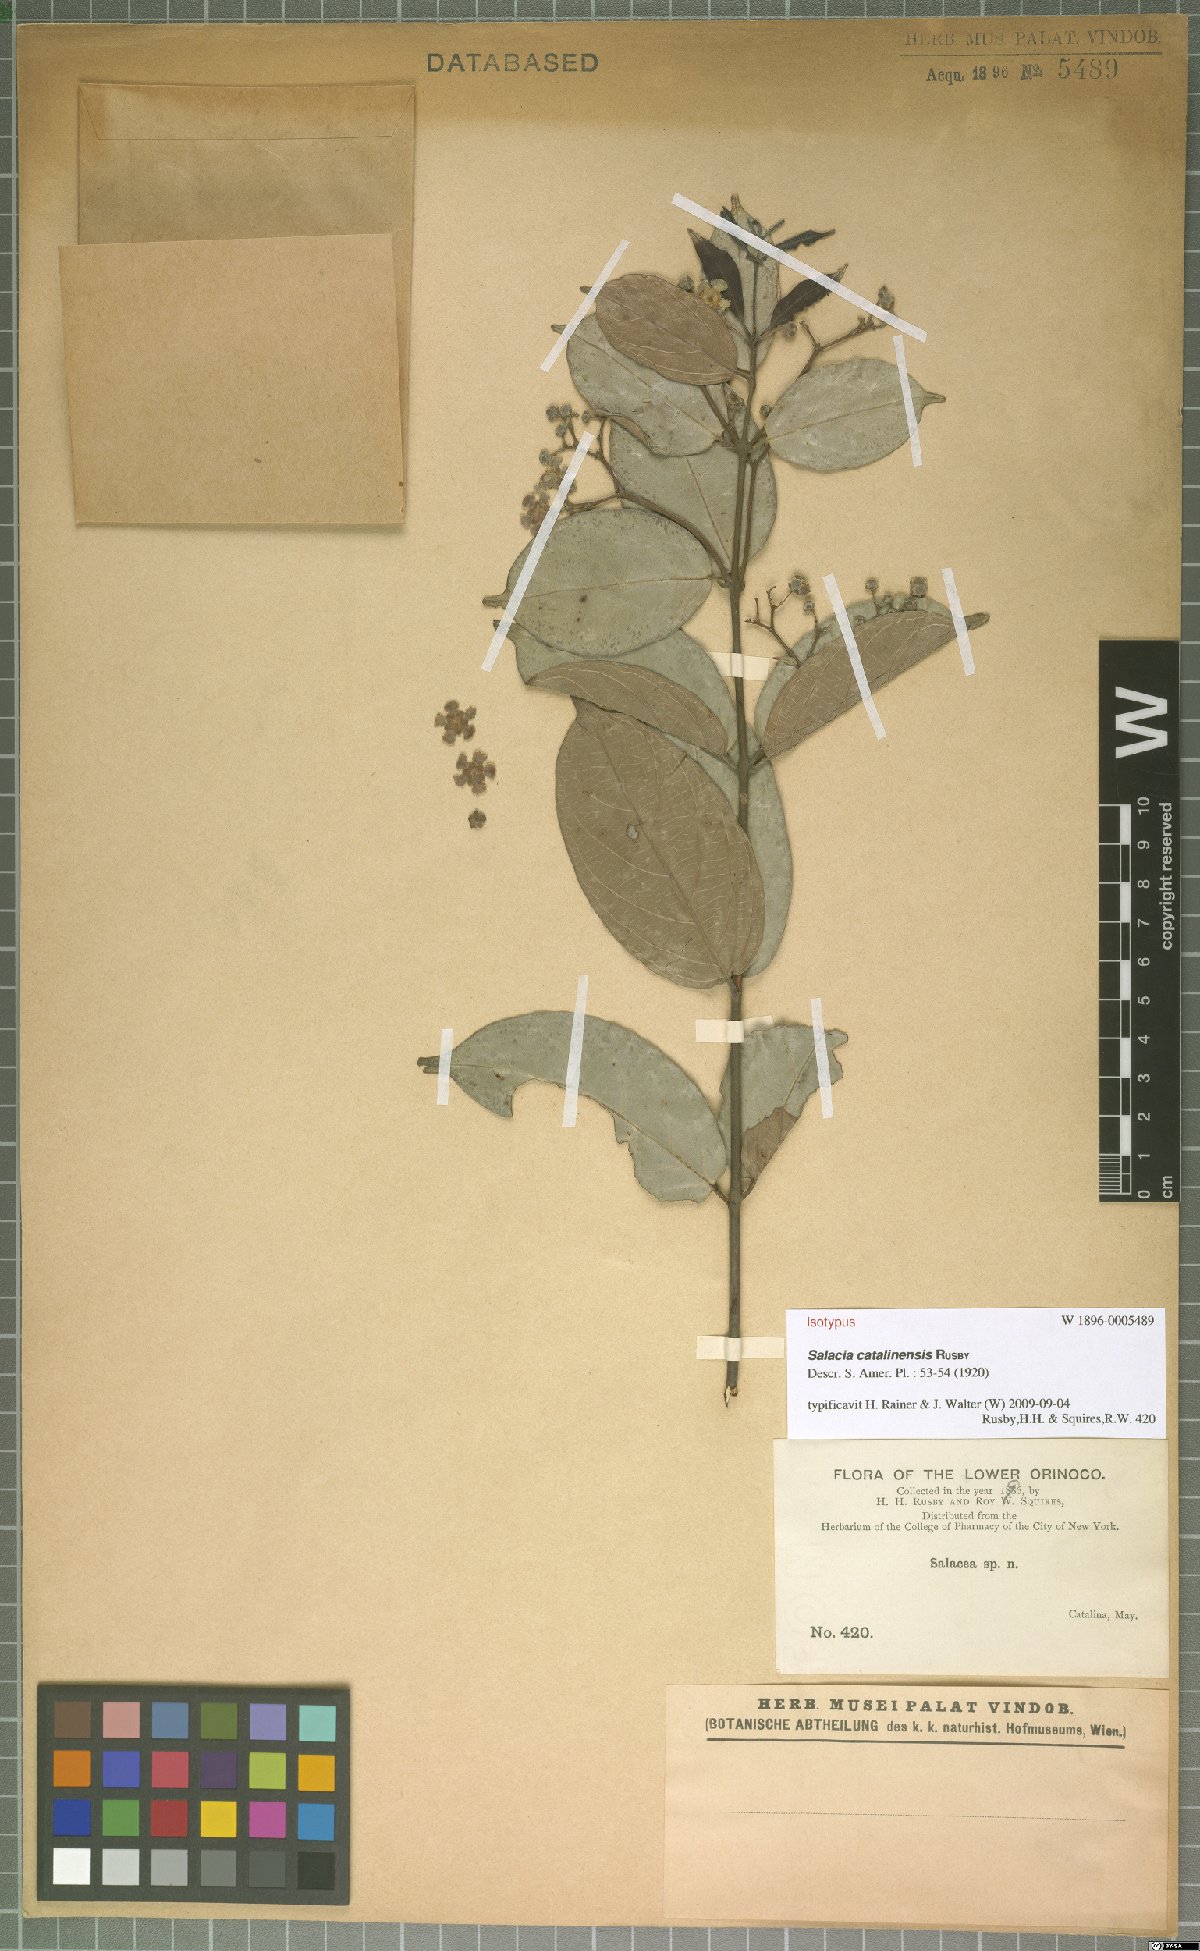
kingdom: Plantae
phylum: Tracheophyta
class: Magnoliopsida
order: Celastrales
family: Celastraceae
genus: Prionostemma
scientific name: Prionostemma aspera
